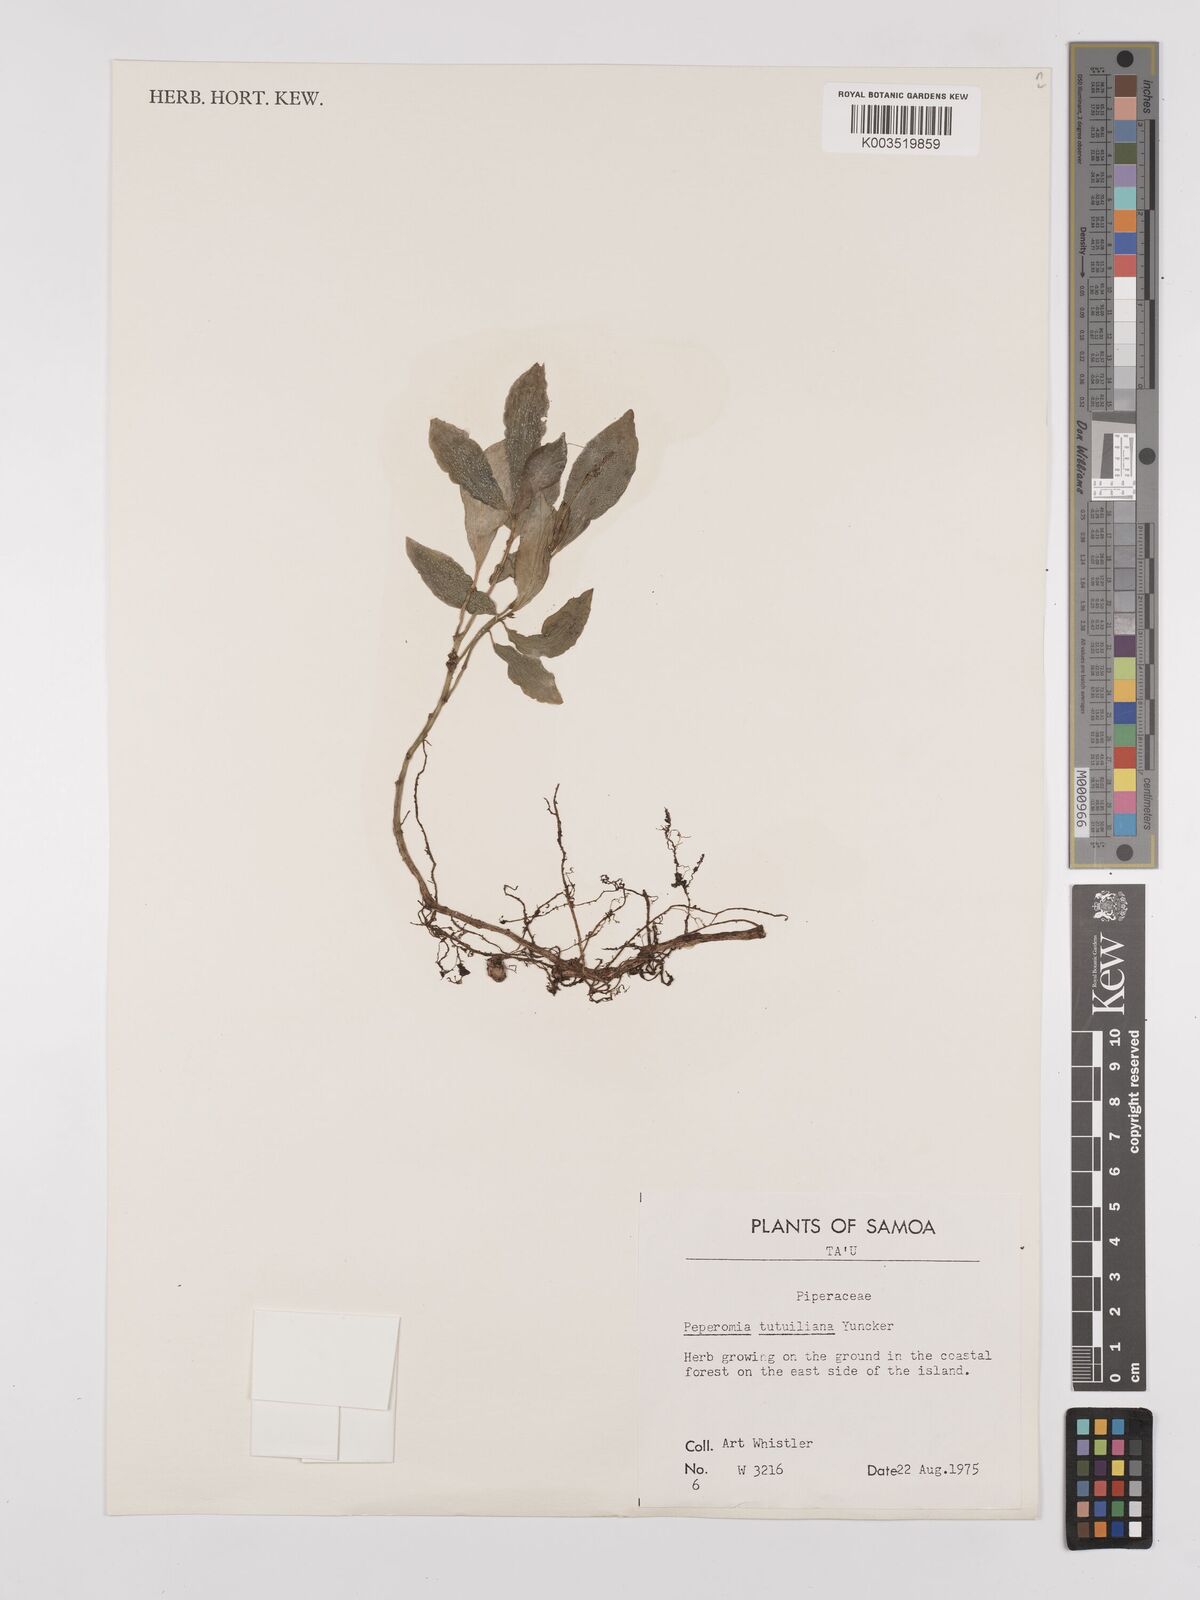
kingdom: Plantae
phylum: Tracheophyta
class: Magnoliopsida
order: Piperales
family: Piperaceae
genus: Peperomia
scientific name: Peperomia tutuilana
